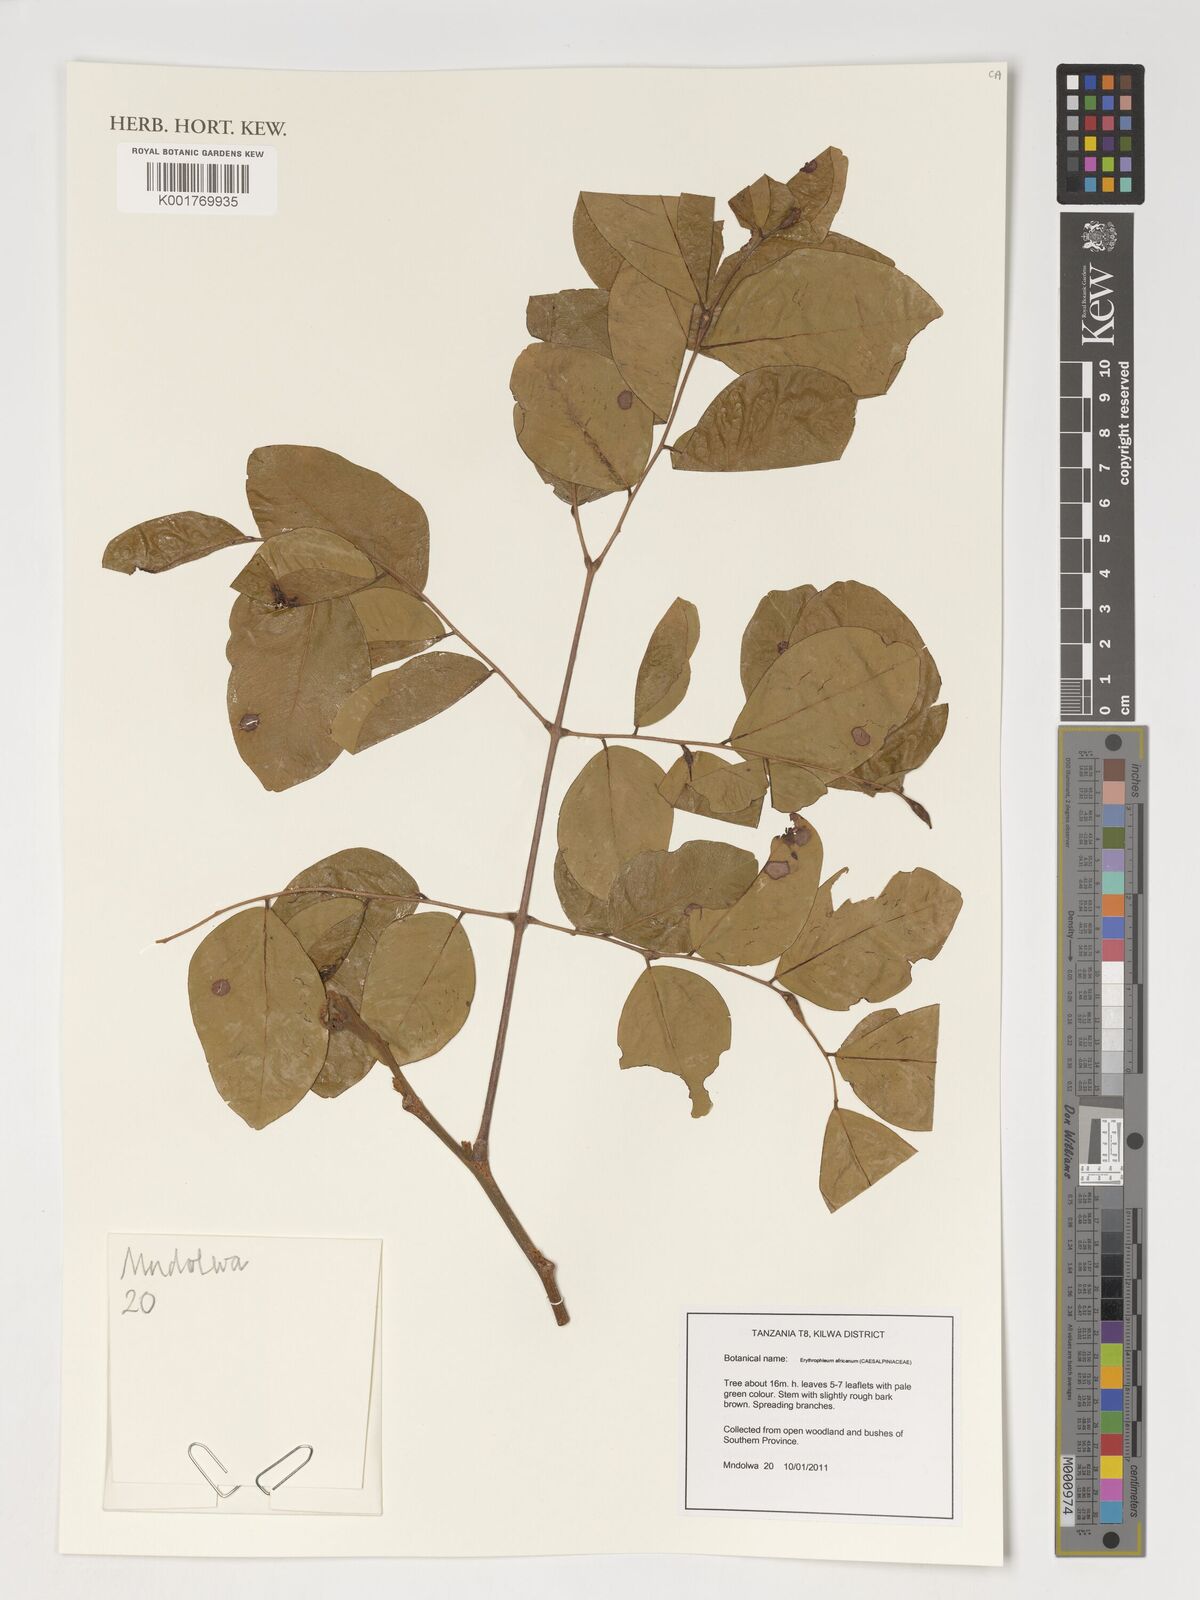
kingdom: Plantae
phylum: Tracheophyta
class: Magnoliopsida
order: Fabales
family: Fabaceae
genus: Erythrophleum
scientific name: Erythrophleum africanum
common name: African blackwood
